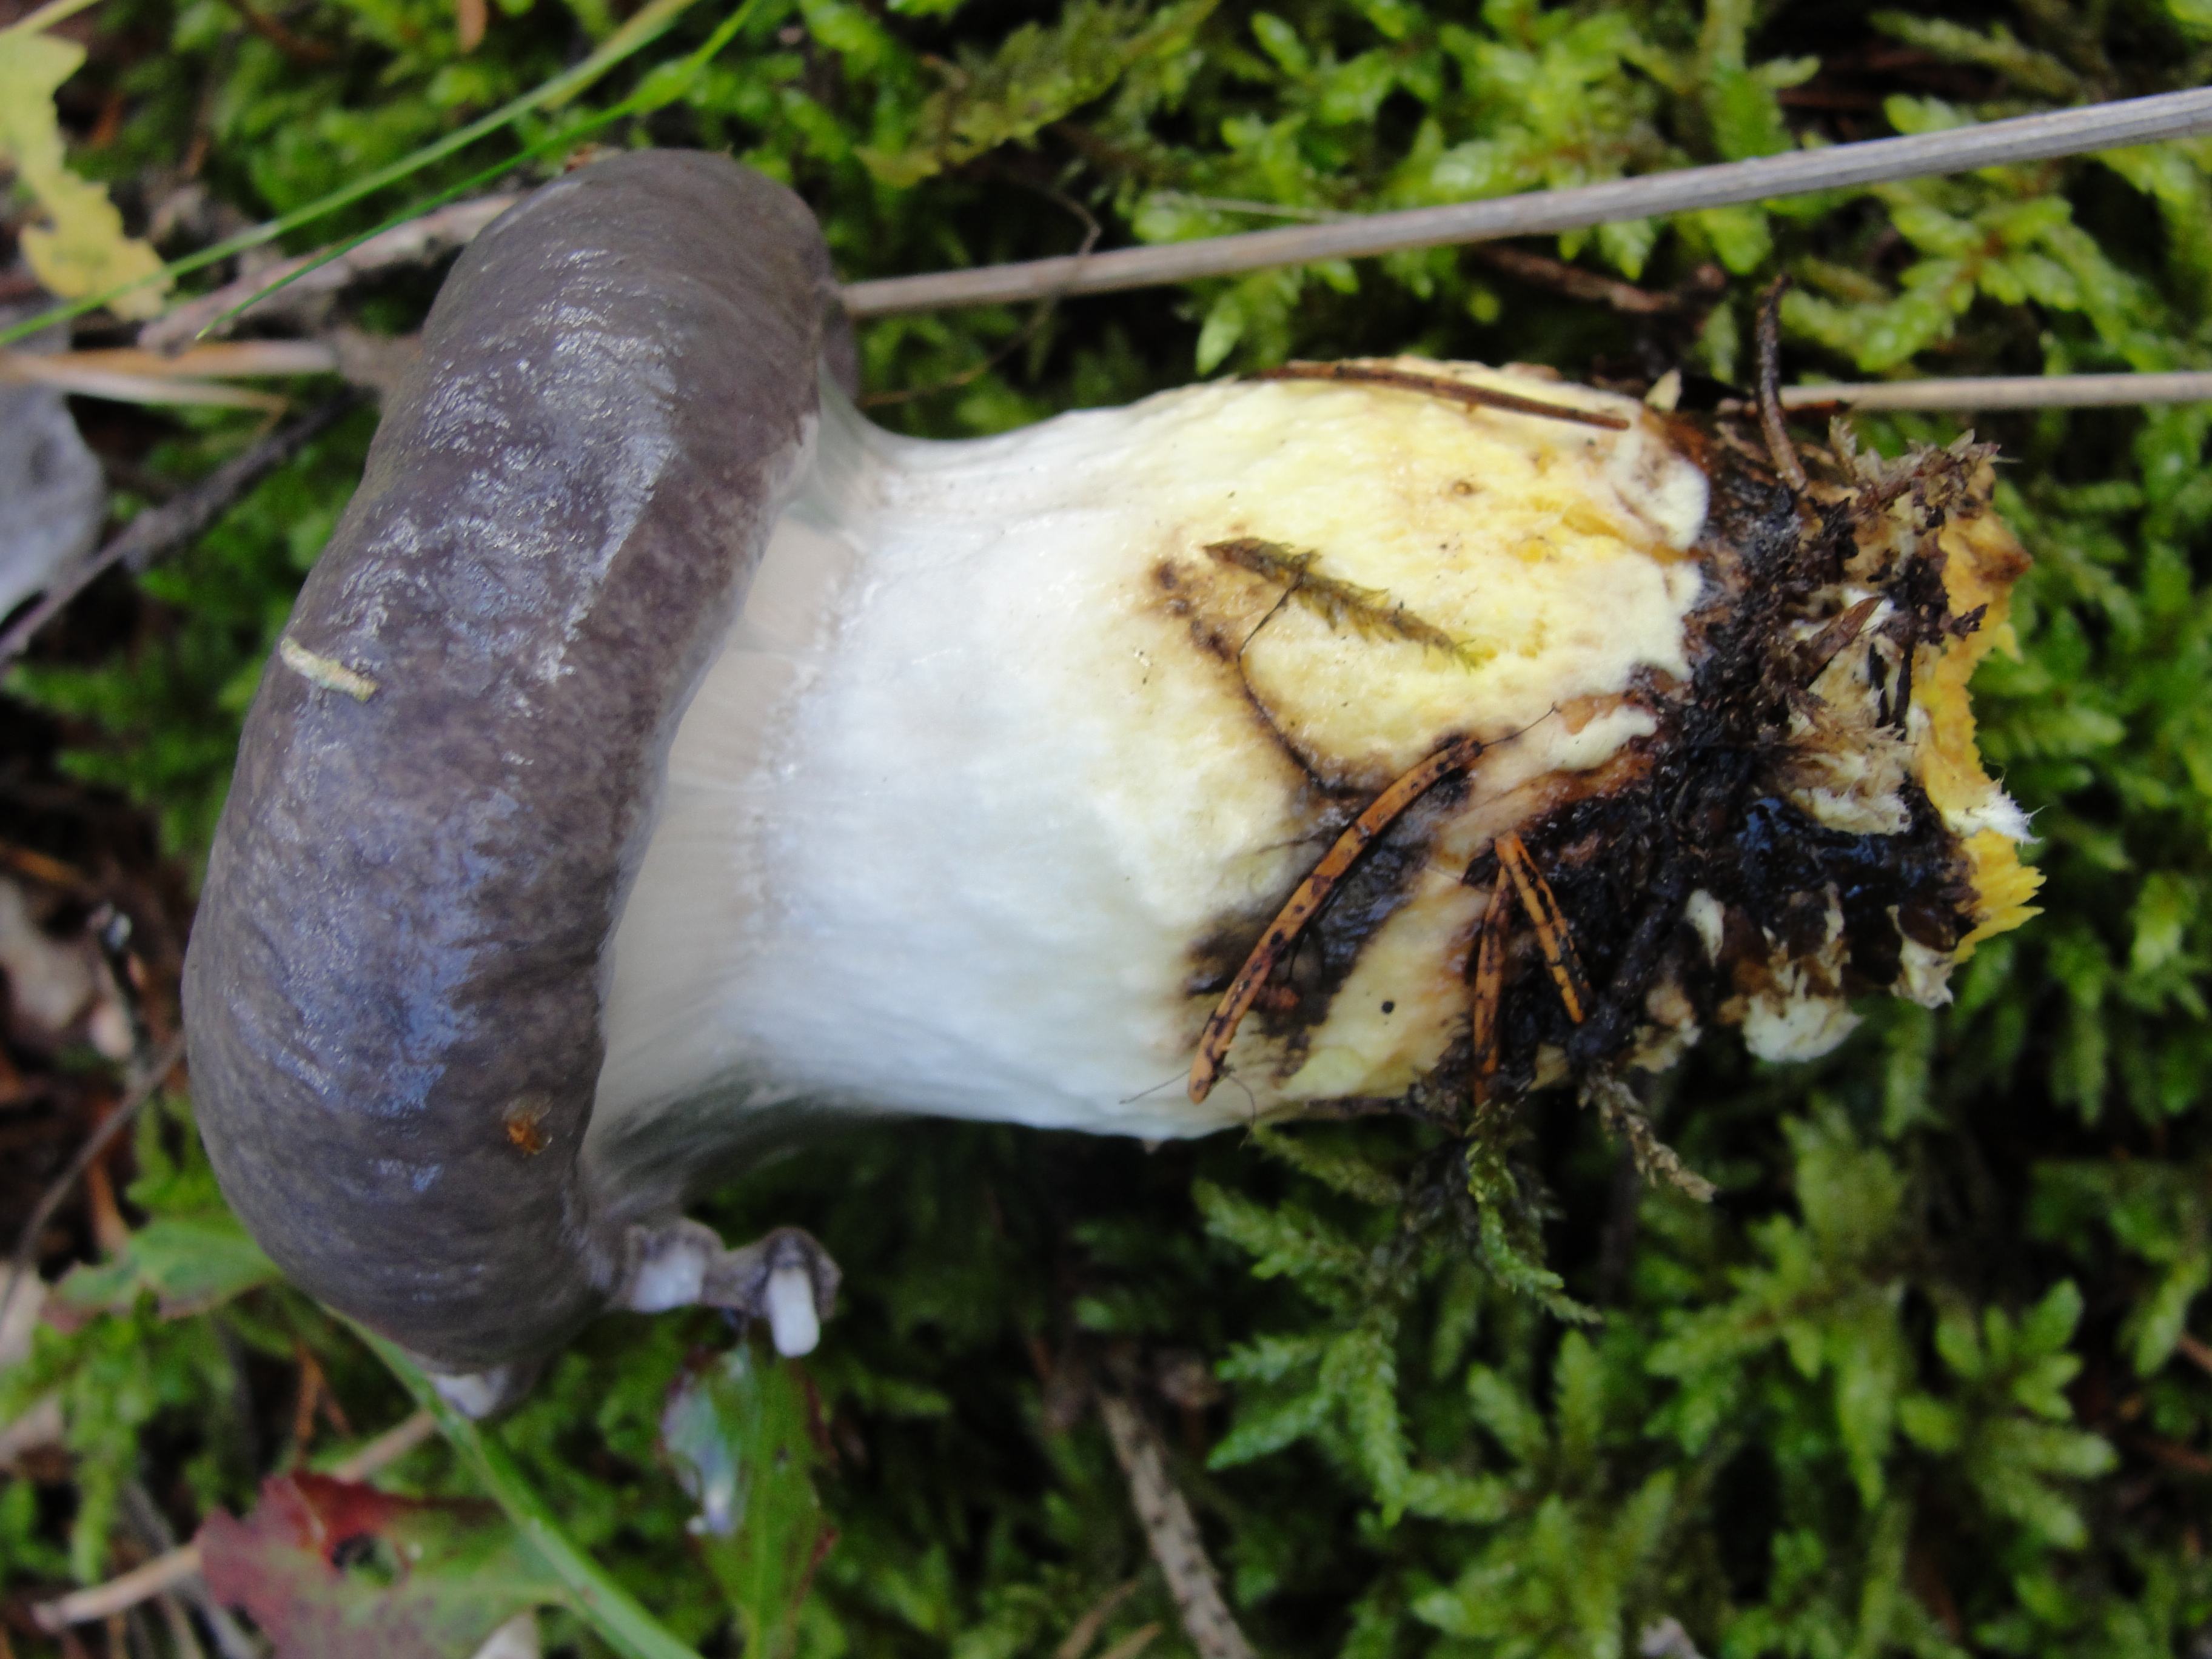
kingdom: Fungi
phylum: Basidiomycota
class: Agaricomycetes
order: Boletales
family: Gomphidiaceae
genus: Gomphidius
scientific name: Gomphidius glutinosus
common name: Slimy spike
